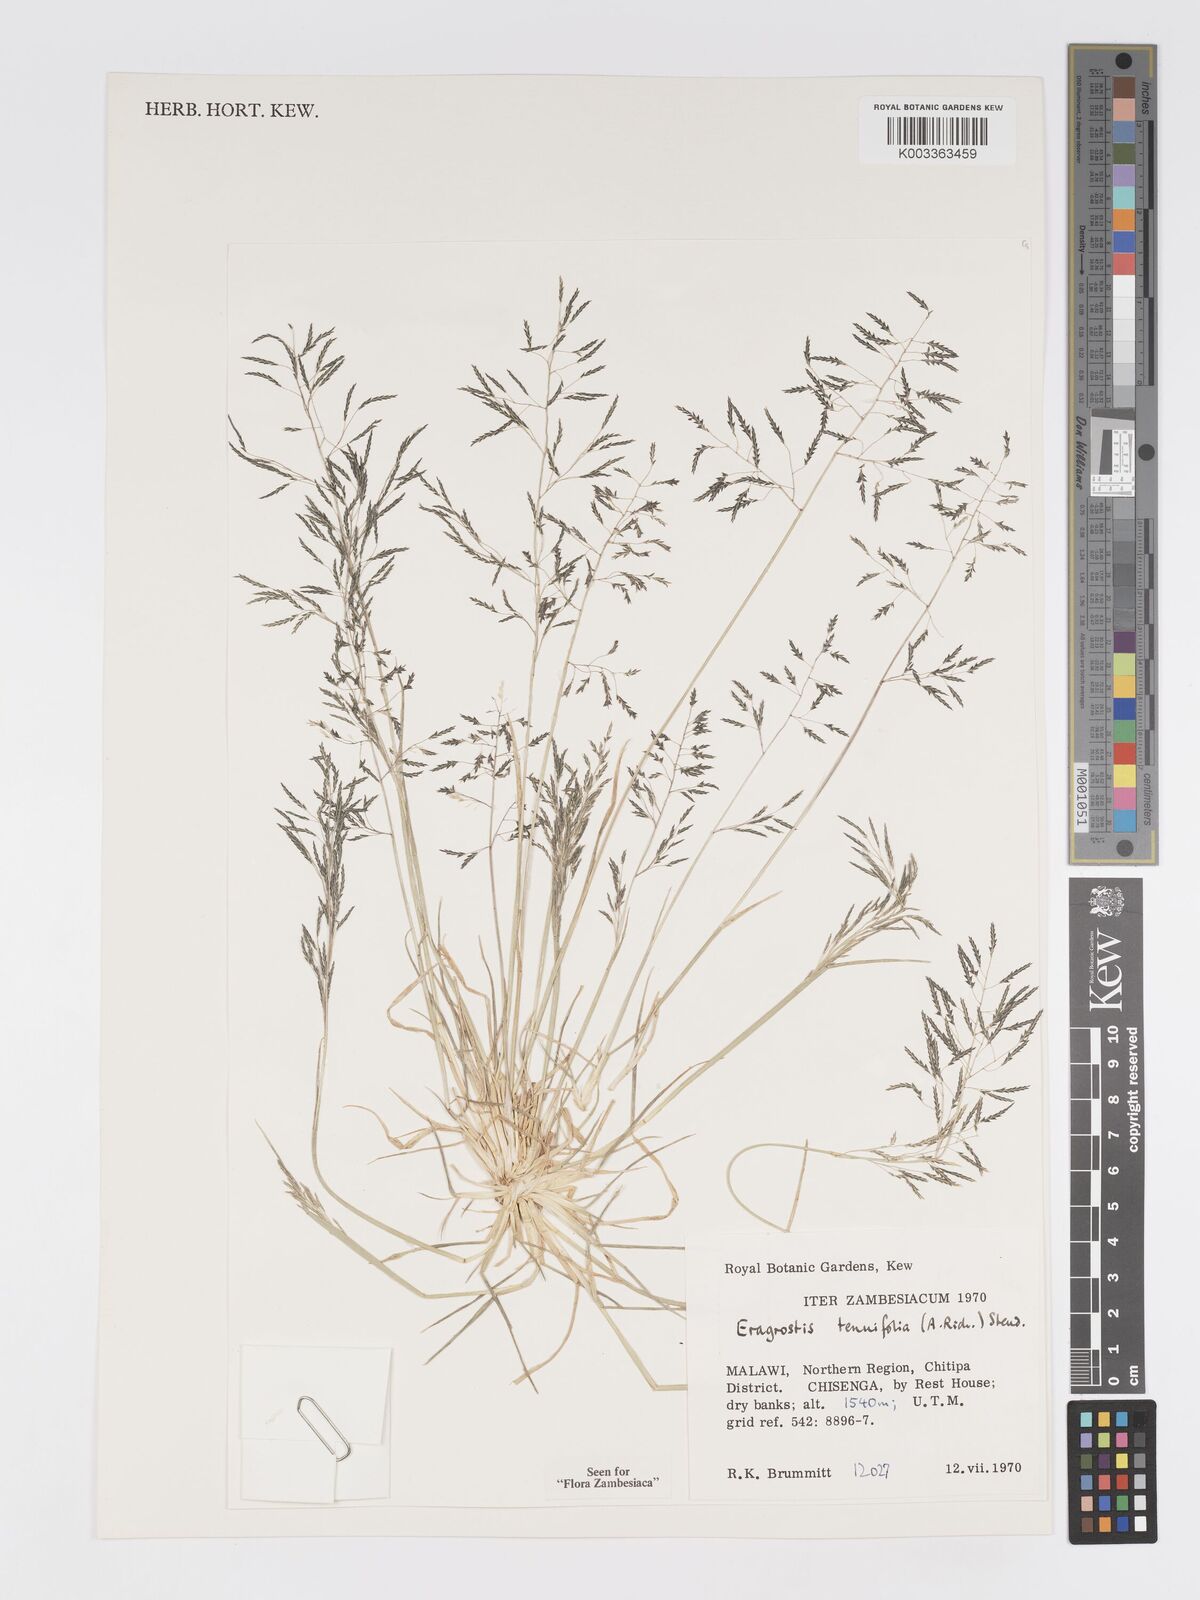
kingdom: Plantae
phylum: Tracheophyta
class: Liliopsida
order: Poales
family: Poaceae
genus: Eragrostis
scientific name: Eragrostis tenuifolia
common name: Elastic grass
